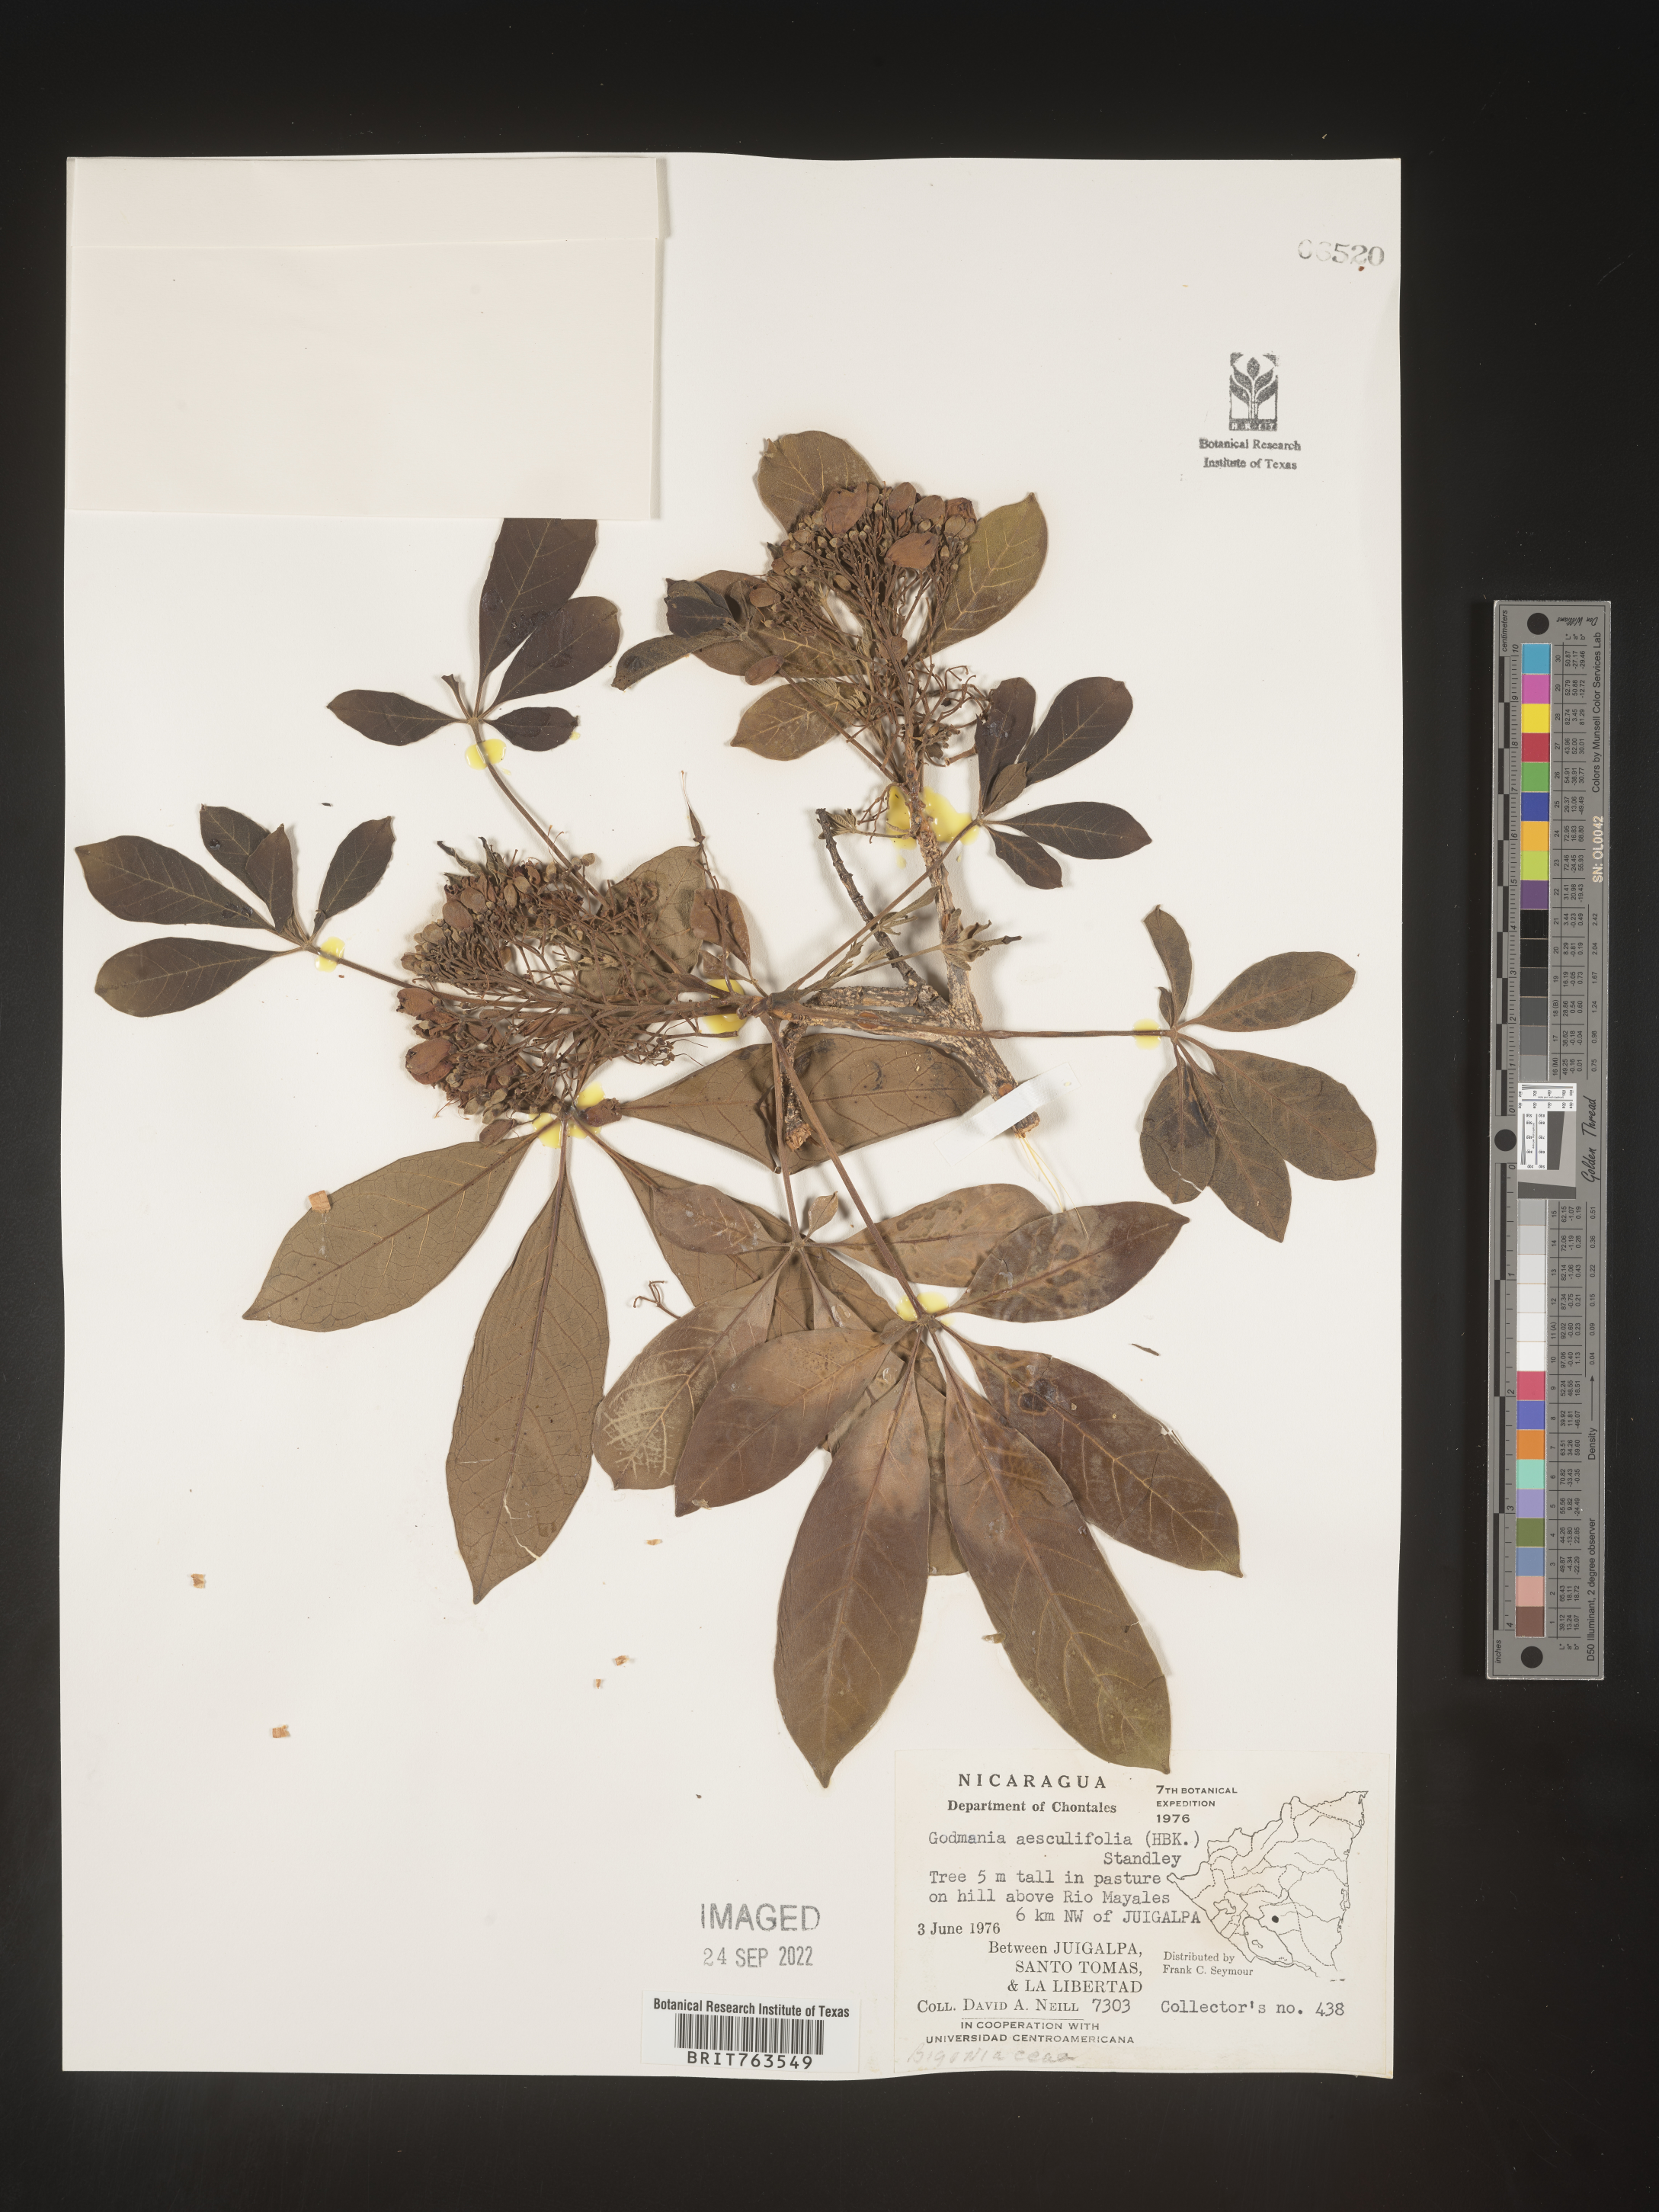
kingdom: Plantae
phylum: Tracheophyta
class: Magnoliopsida
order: Lamiales
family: Bignoniaceae
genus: Godmania
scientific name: Godmania
